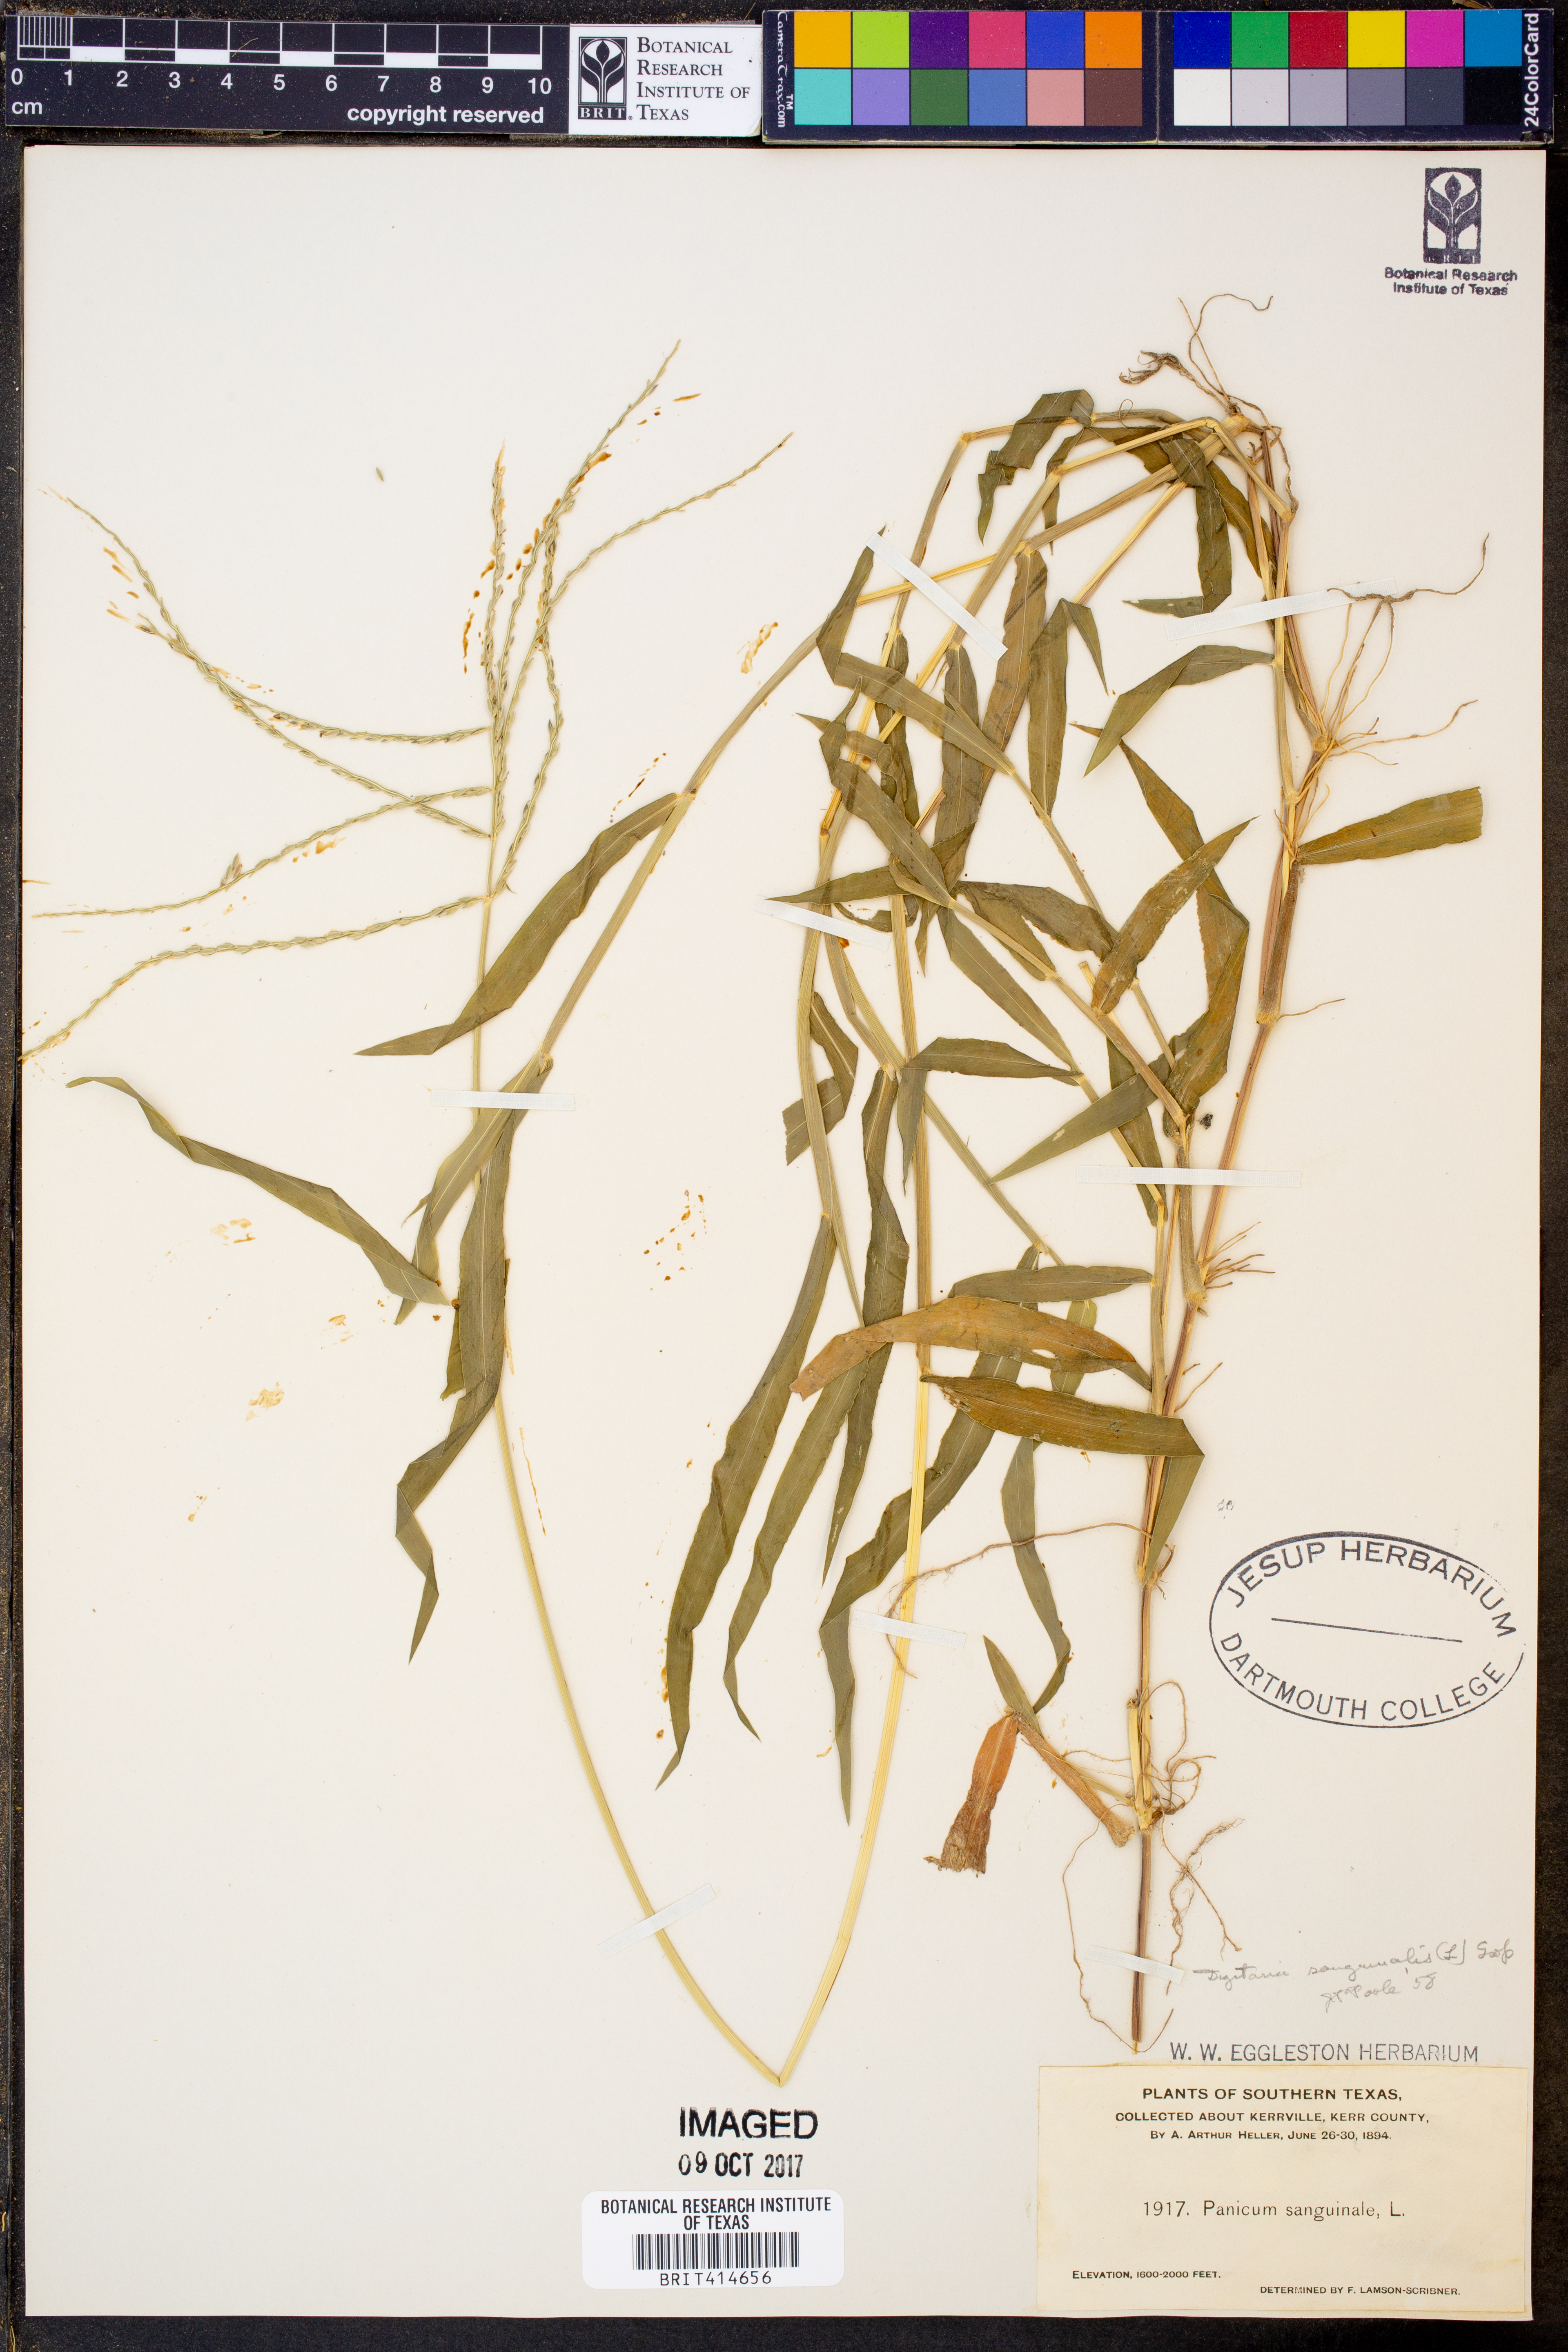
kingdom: Plantae
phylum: Tracheophyta
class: Liliopsida
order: Poales
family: Poaceae
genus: Digitaria
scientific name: Digitaria sanguinalis
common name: Hairy crabgrass
